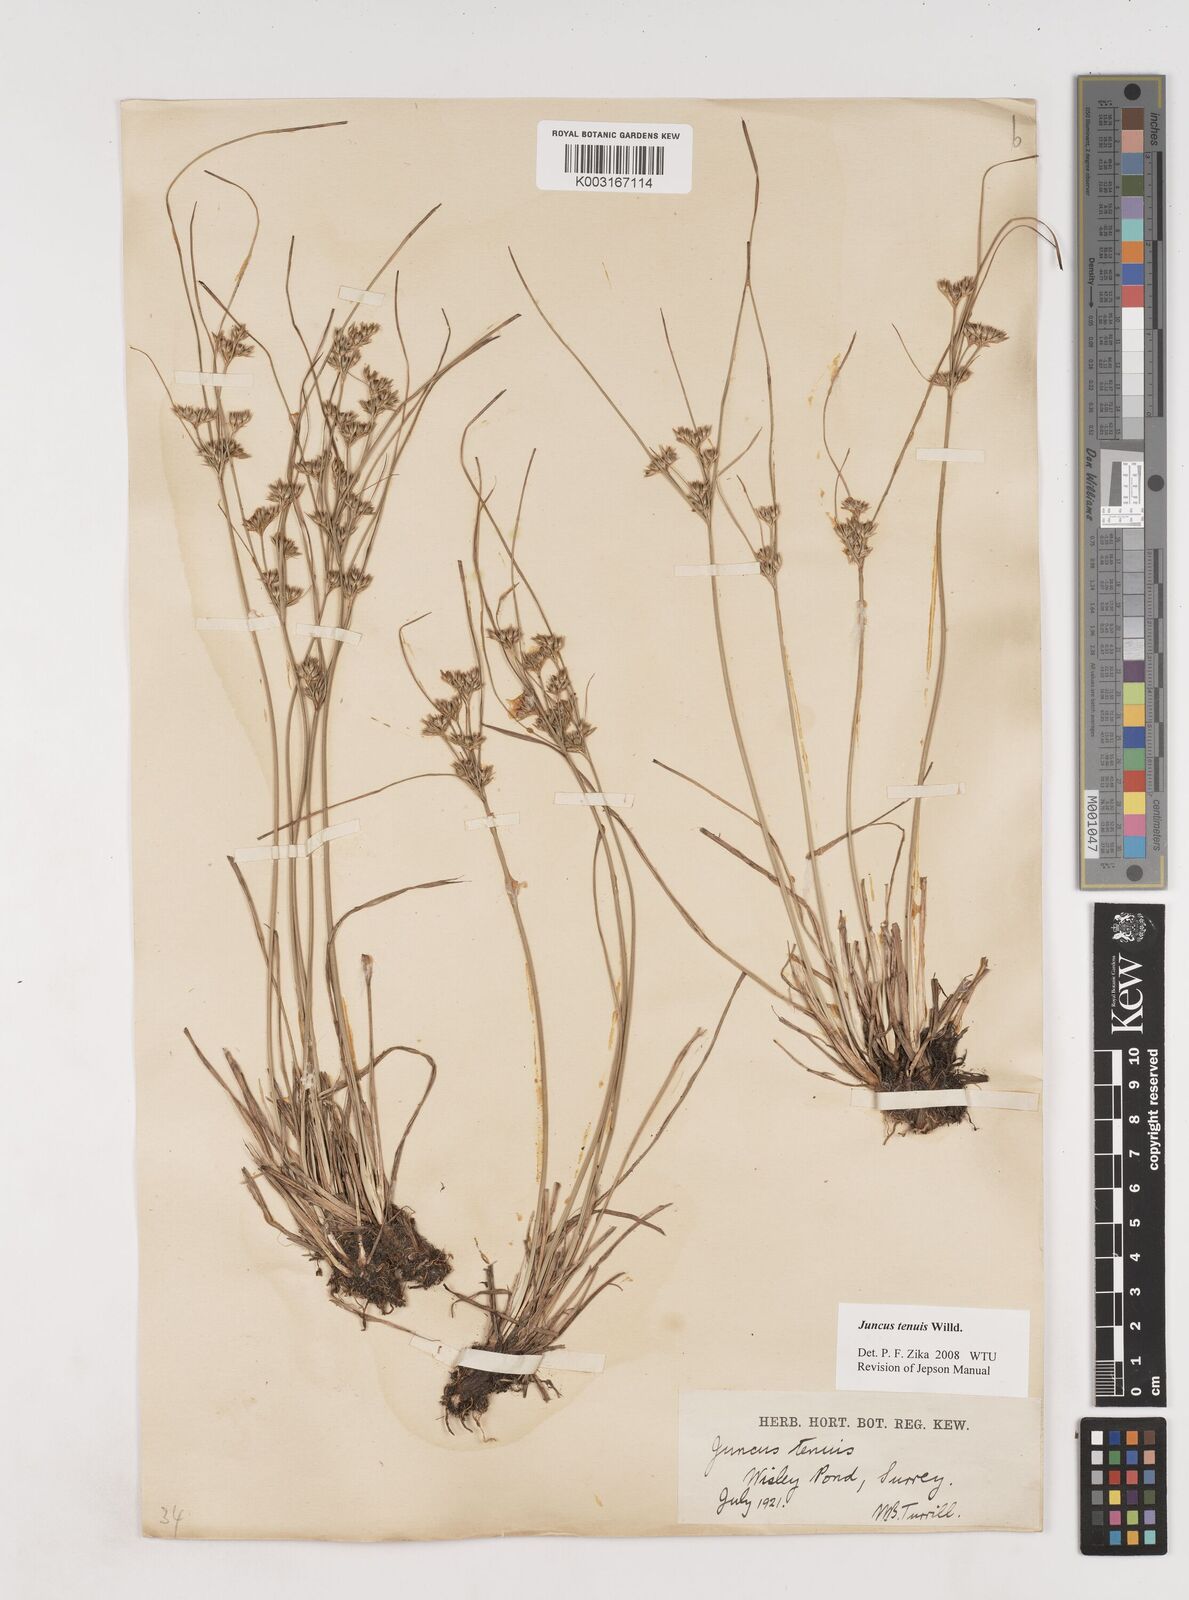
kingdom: Plantae
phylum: Tracheophyta
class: Liliopsida
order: Poales
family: Juncaceae
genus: Juncus
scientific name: Juncus occidentalis
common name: Western rush
